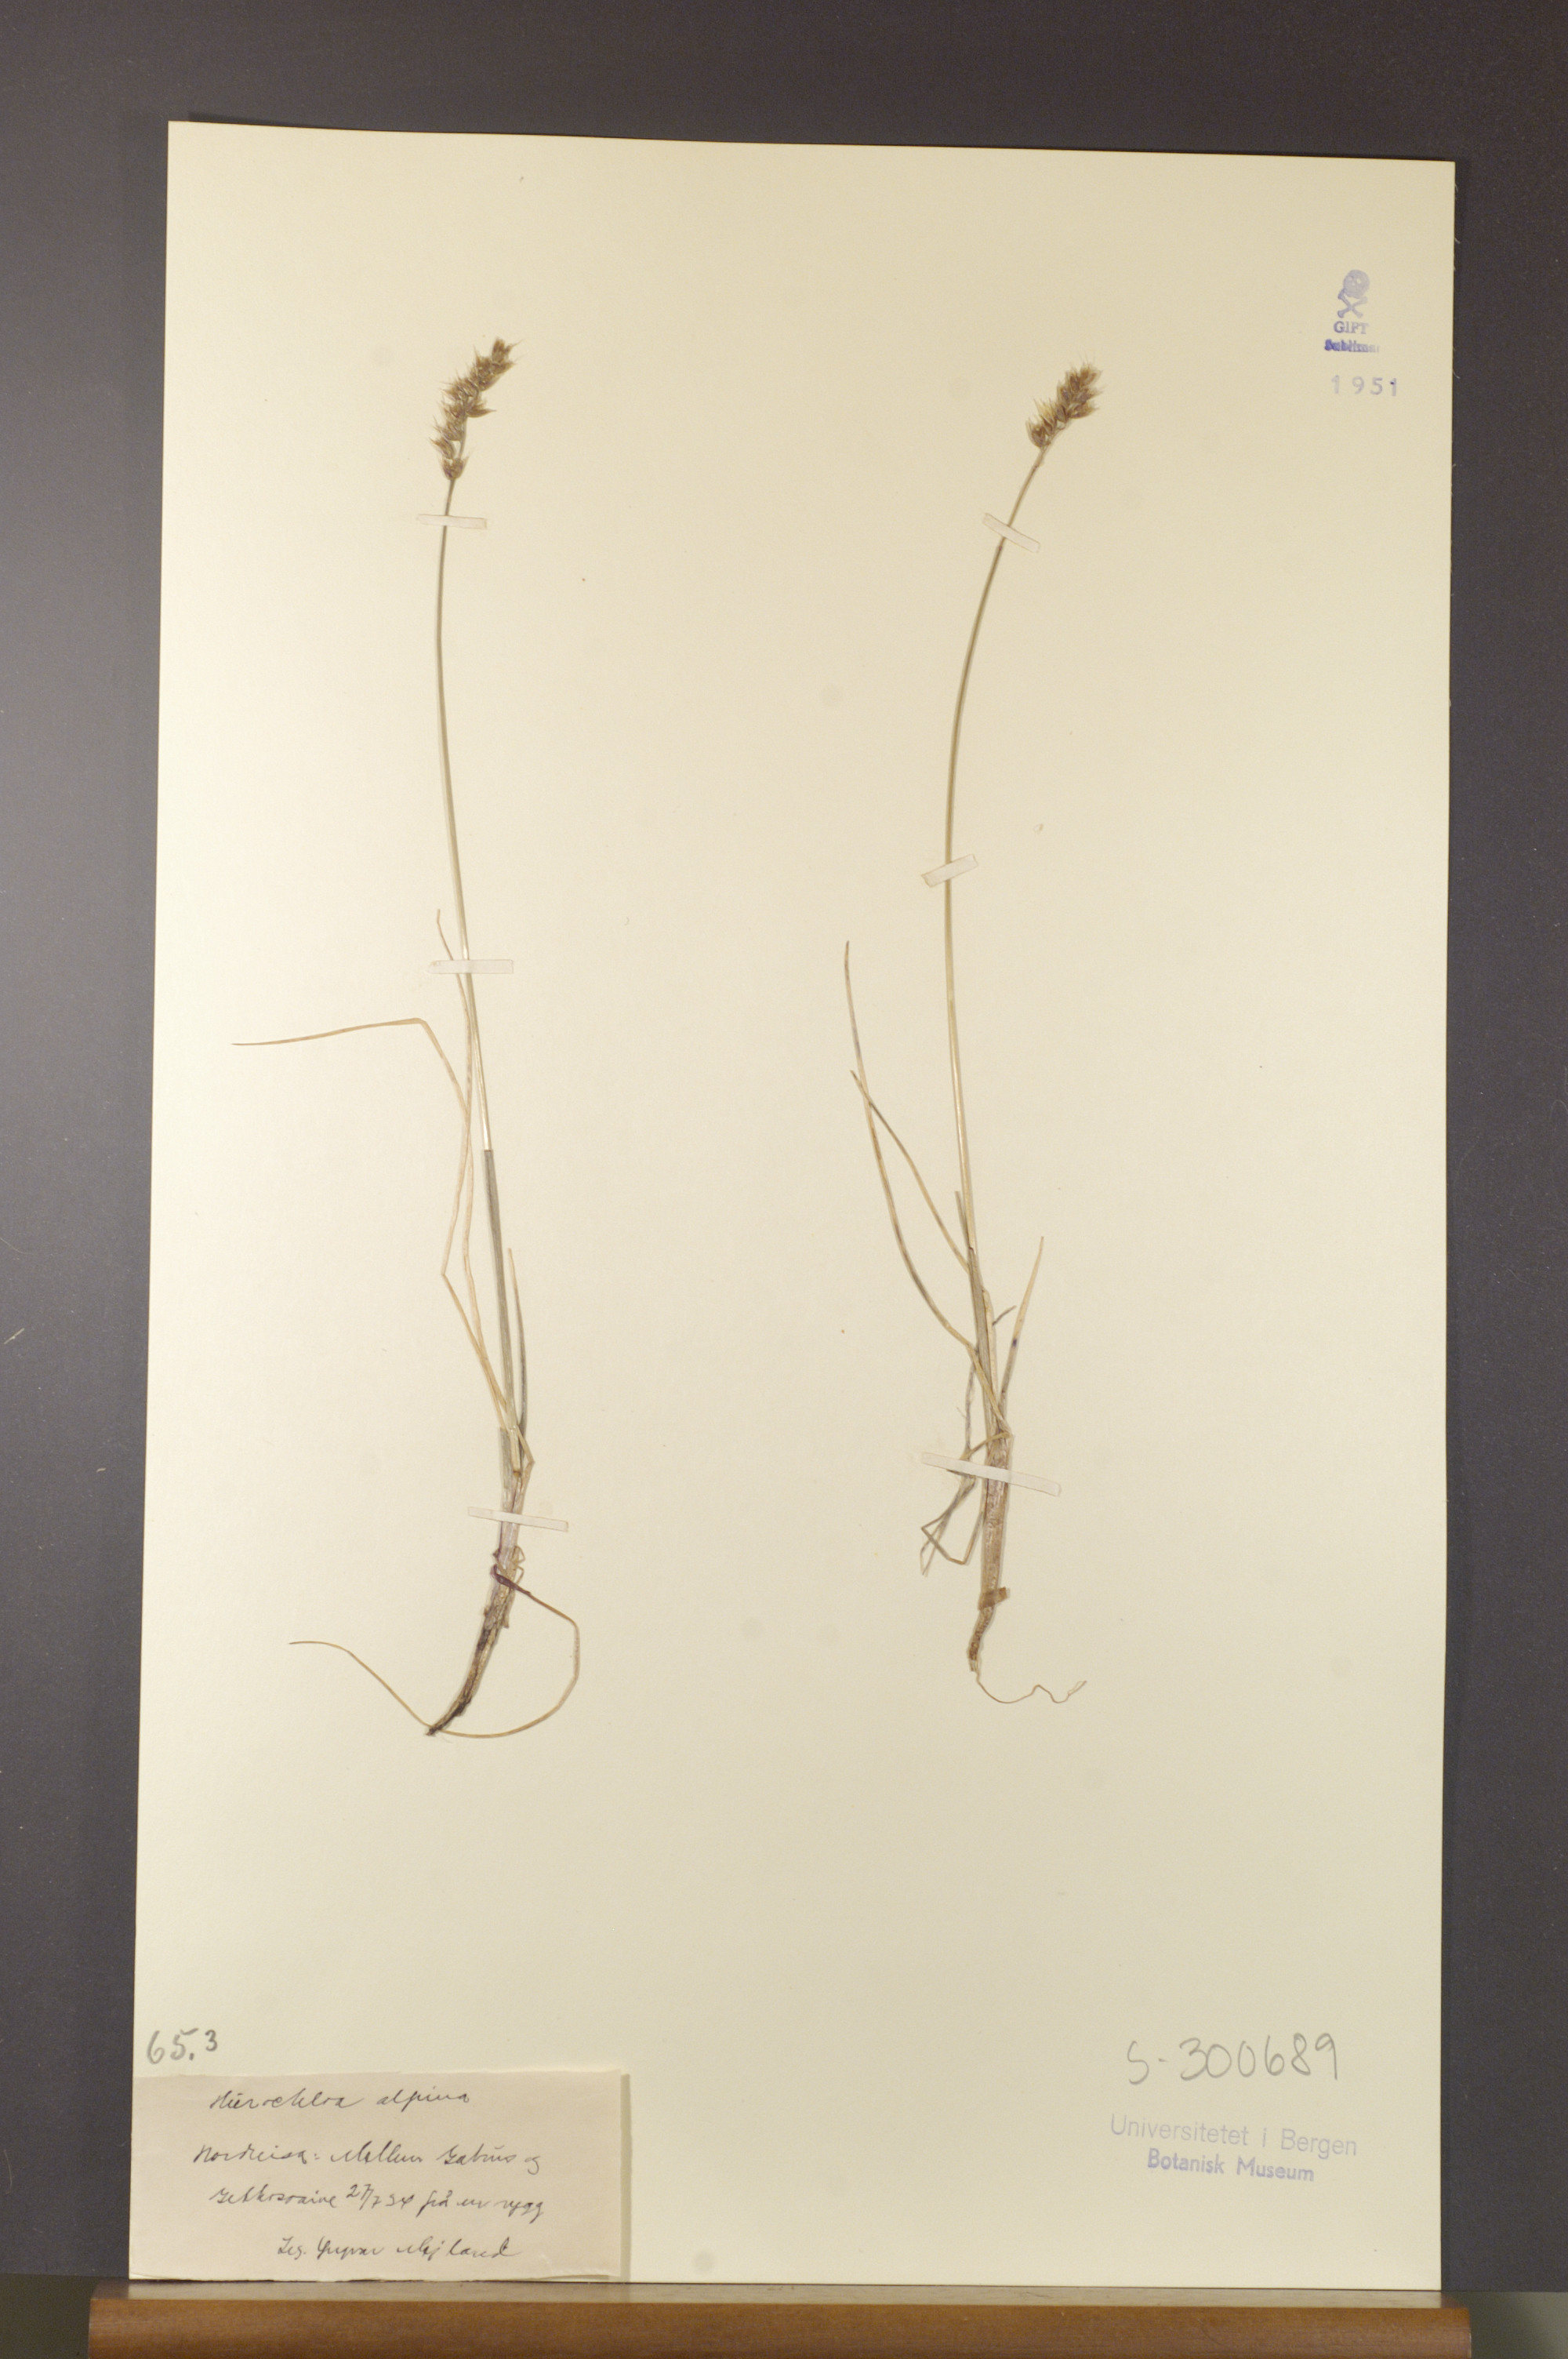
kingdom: Plantae
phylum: Tracheophyta
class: Liliopsida
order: Poales
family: Poaceae
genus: Anthoxanthum
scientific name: Anthoxanthum monticola
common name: Alpine sweetgrass
